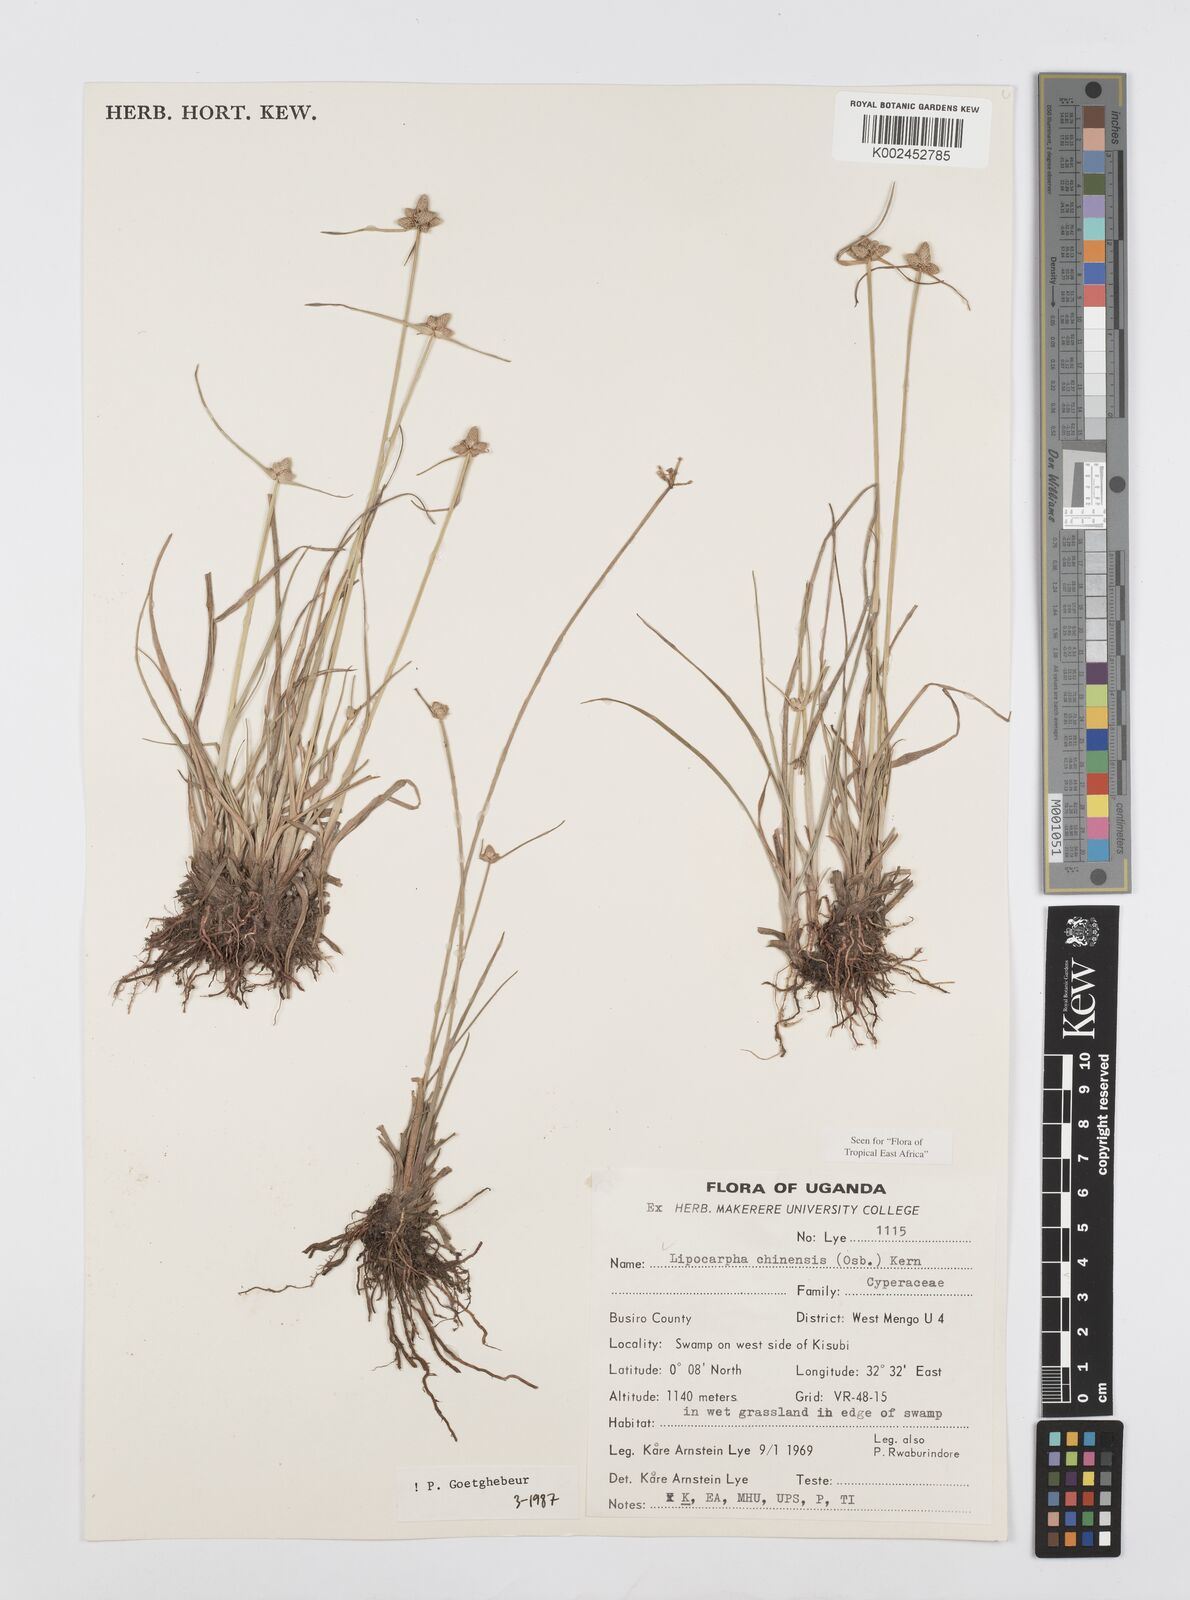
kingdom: Plantae
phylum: Tracheophyta
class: Liliopsida
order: Poales
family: Cyperaceae
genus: Cyperus
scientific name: Cyperus albescens
